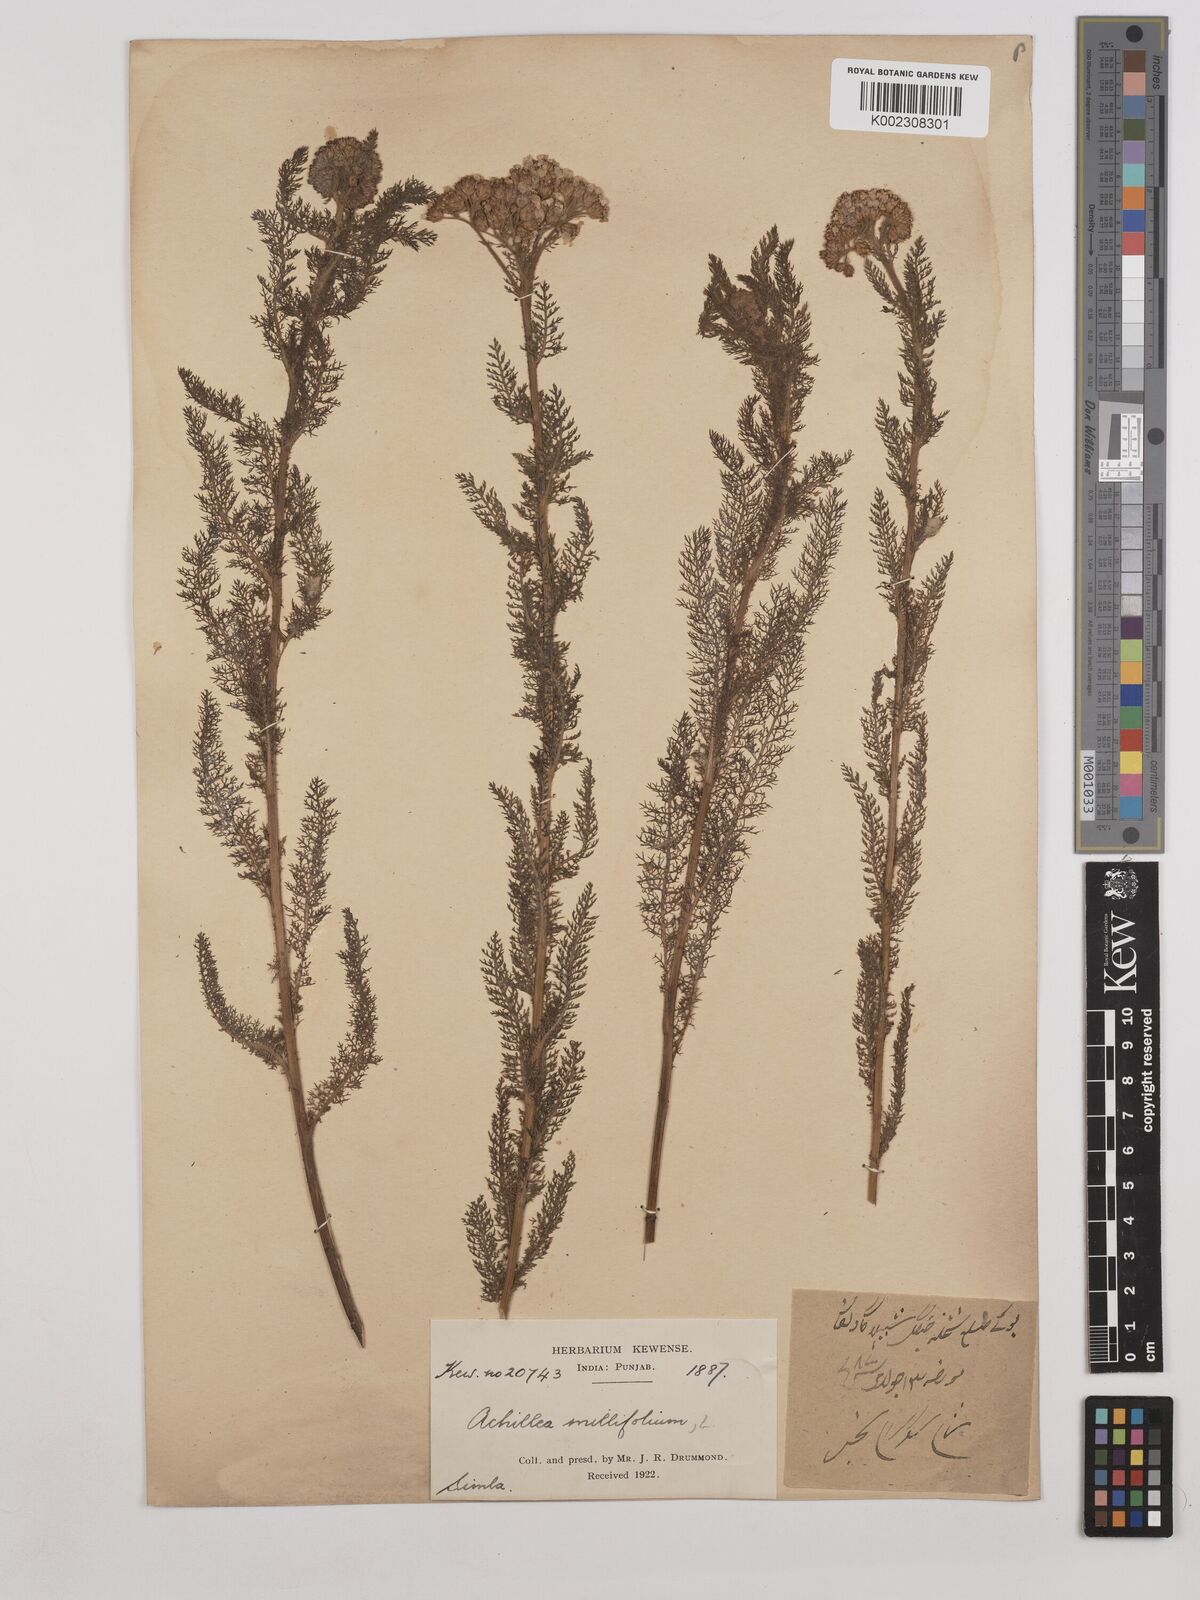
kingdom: Plantae
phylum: Tracheophyta
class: Magnoliopsida
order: Asterales
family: Asteraceae
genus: Achillea
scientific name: Achillea millefolium
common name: Yarrow
